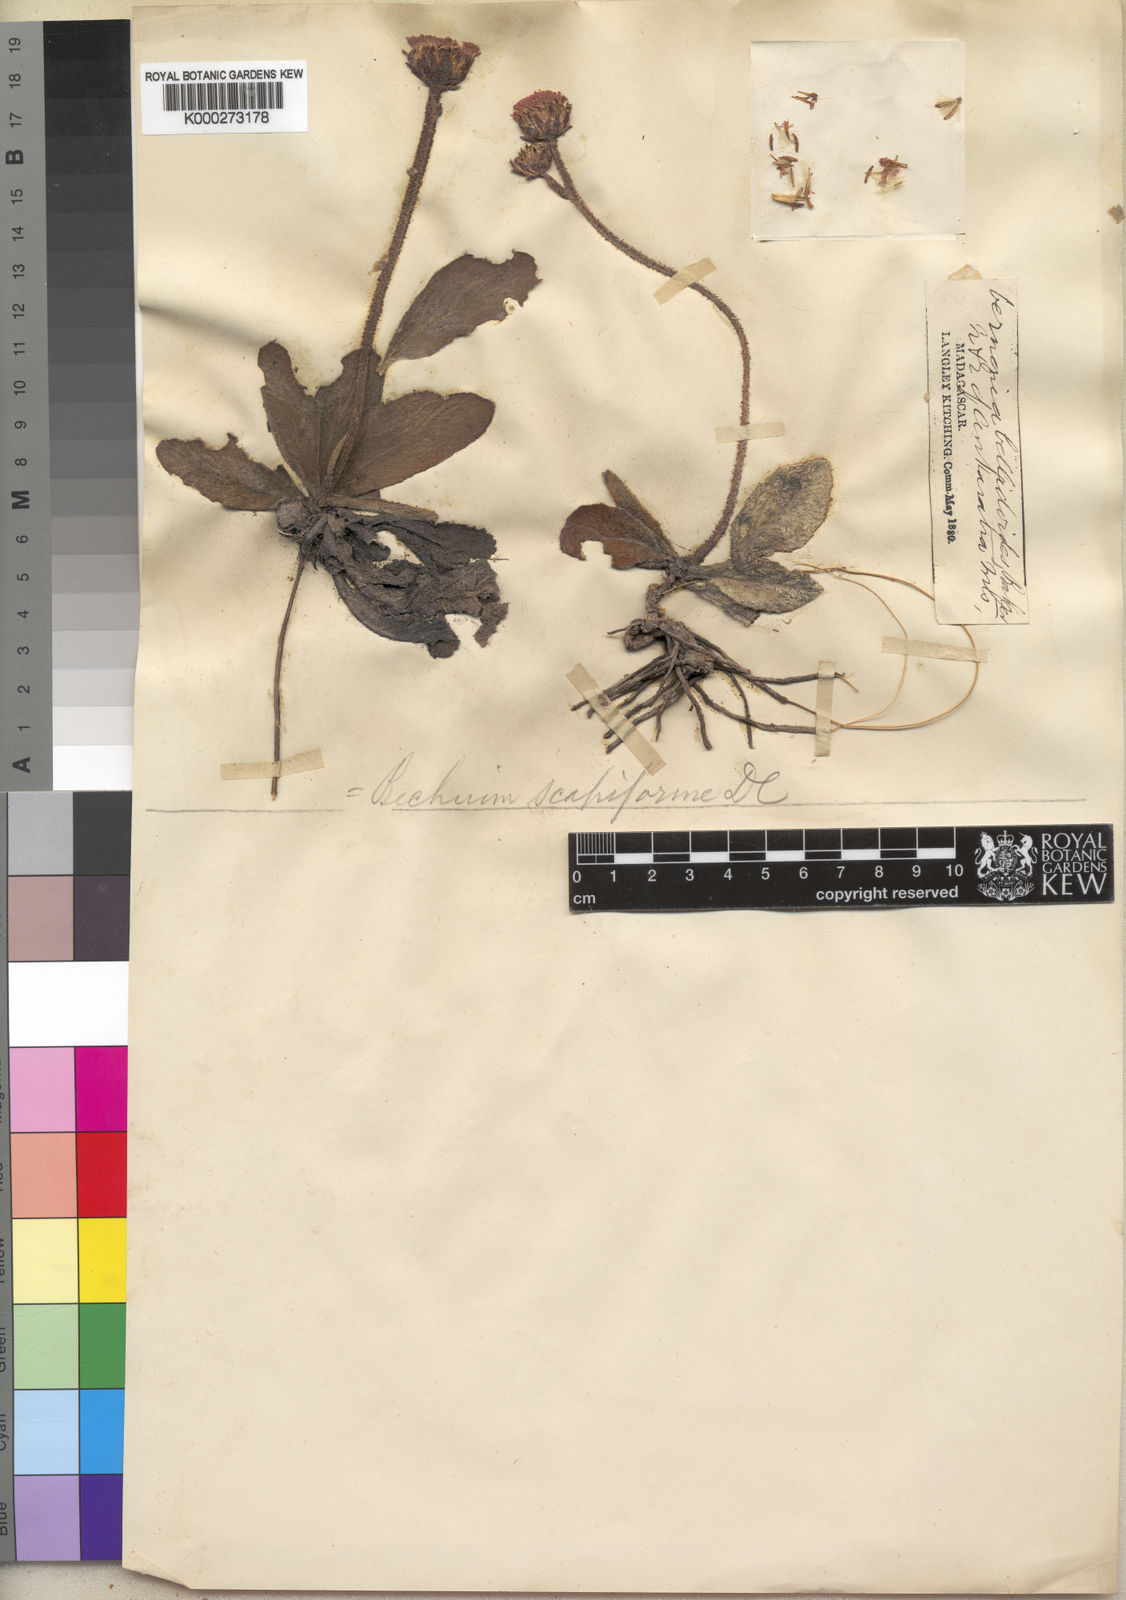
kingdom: Plantae
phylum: Tracheophyta
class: Magnoliopsida
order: Asterales
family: Asteraceae
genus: Bechium
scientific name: Bechium nudicaule
